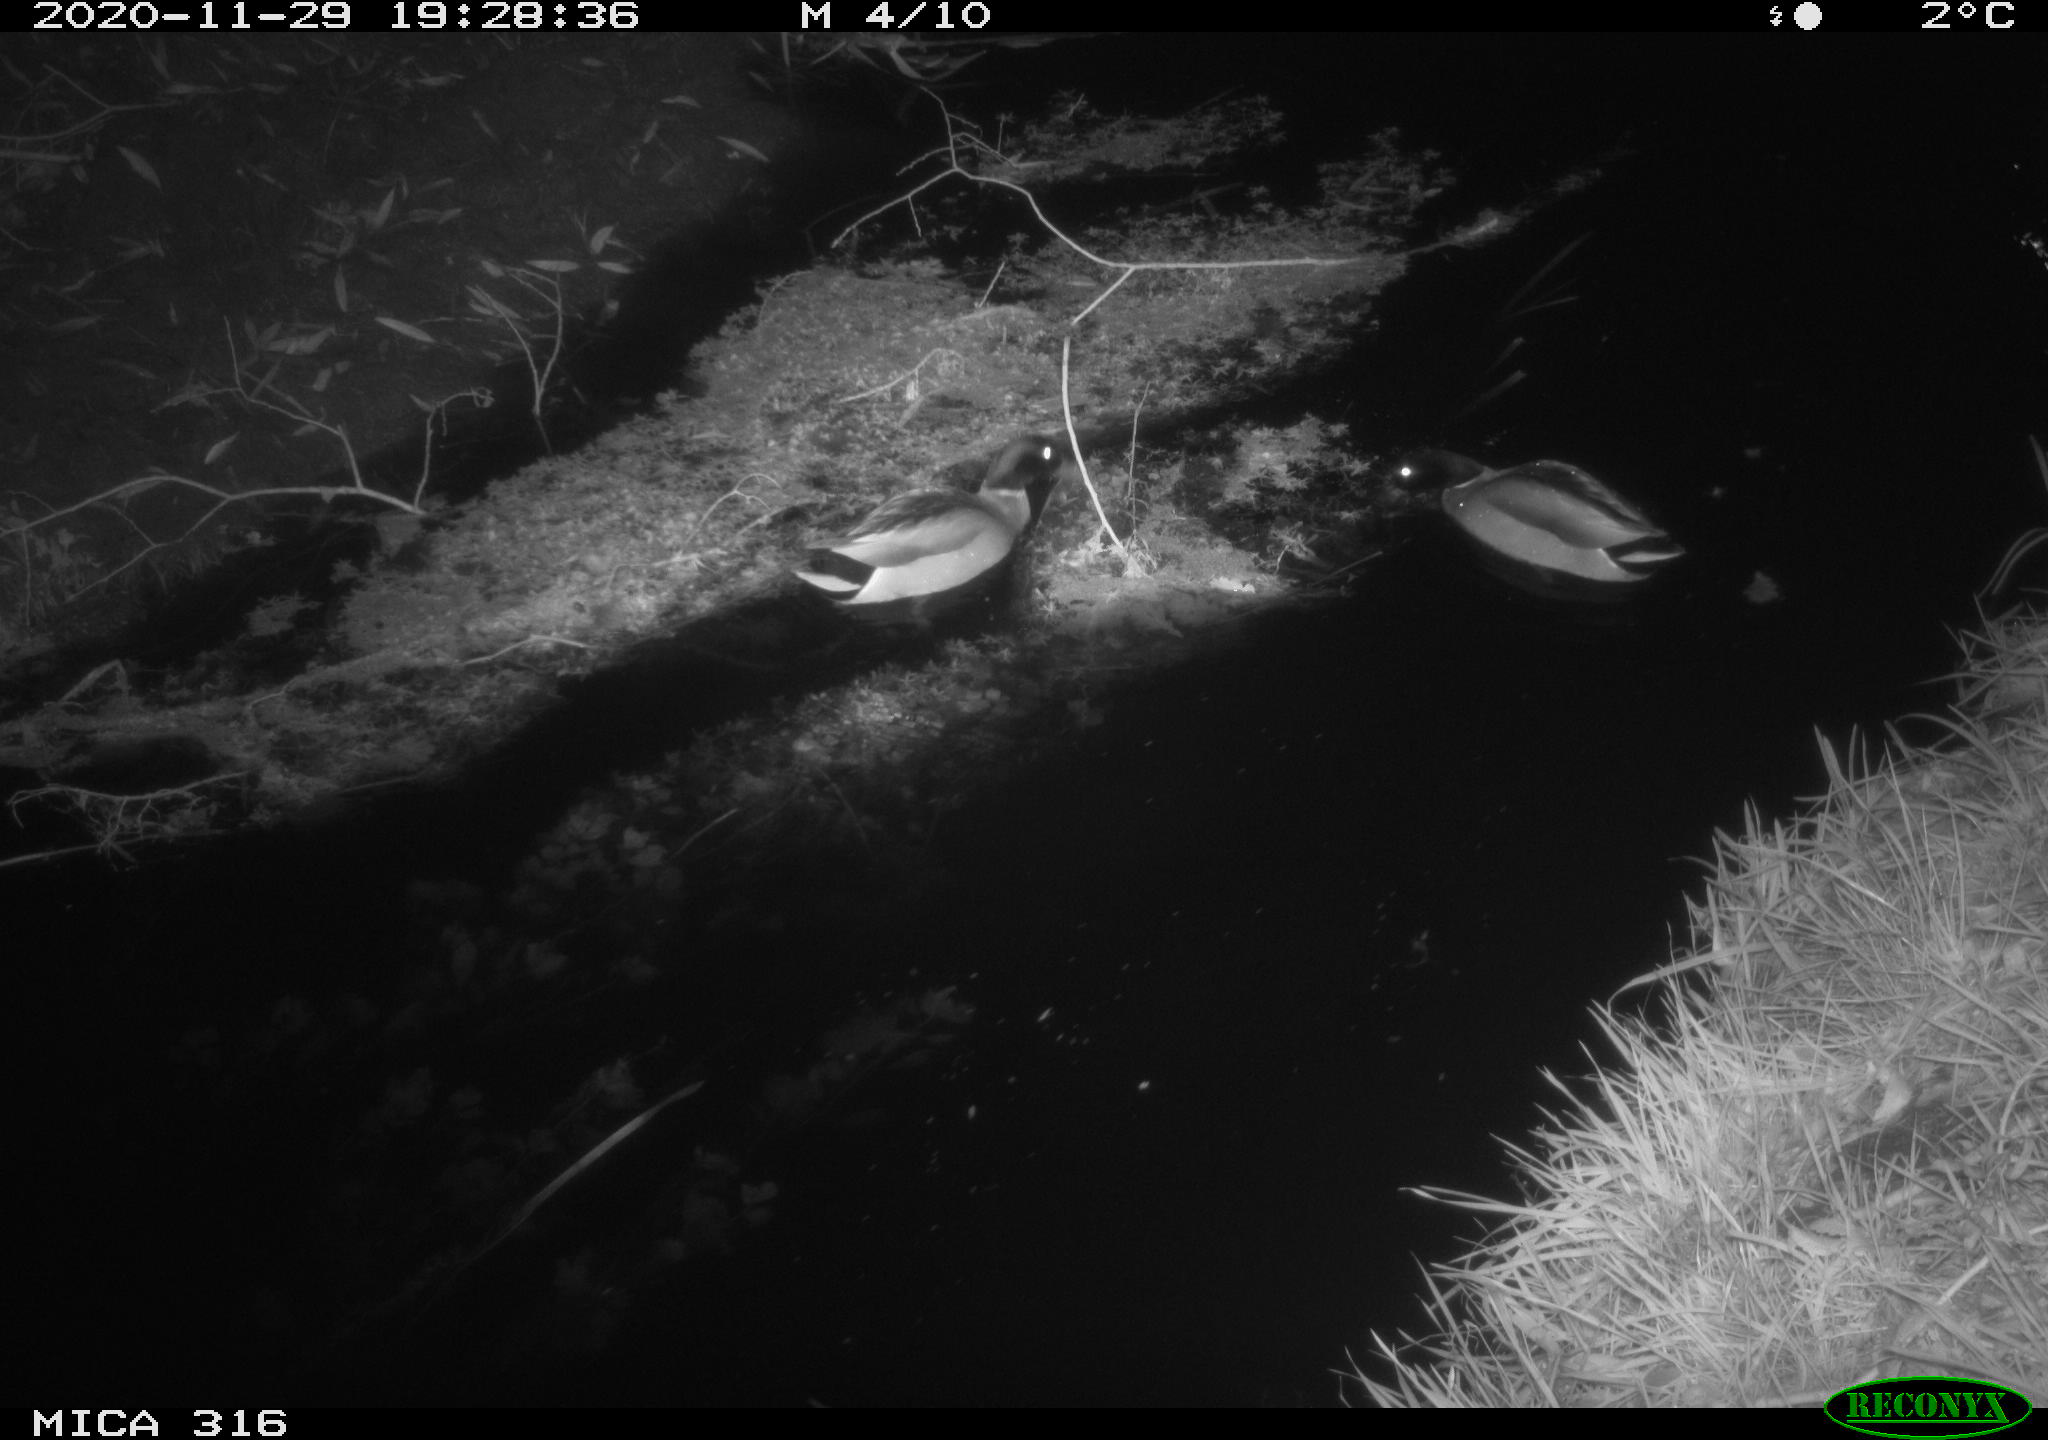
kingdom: Animalia
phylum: Chordata
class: Aves
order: Anseriformes
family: Anatidae
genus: Anas
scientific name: Anas platyrhynchos
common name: Mallard
